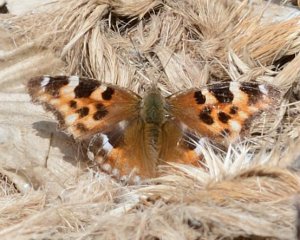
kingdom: Animalia
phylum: Arthropoda
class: Insecta
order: Lepidoptera
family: Nymphalidae
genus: Polygonia
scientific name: Polygonia vaualbum
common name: Compton Tortoiseshell
